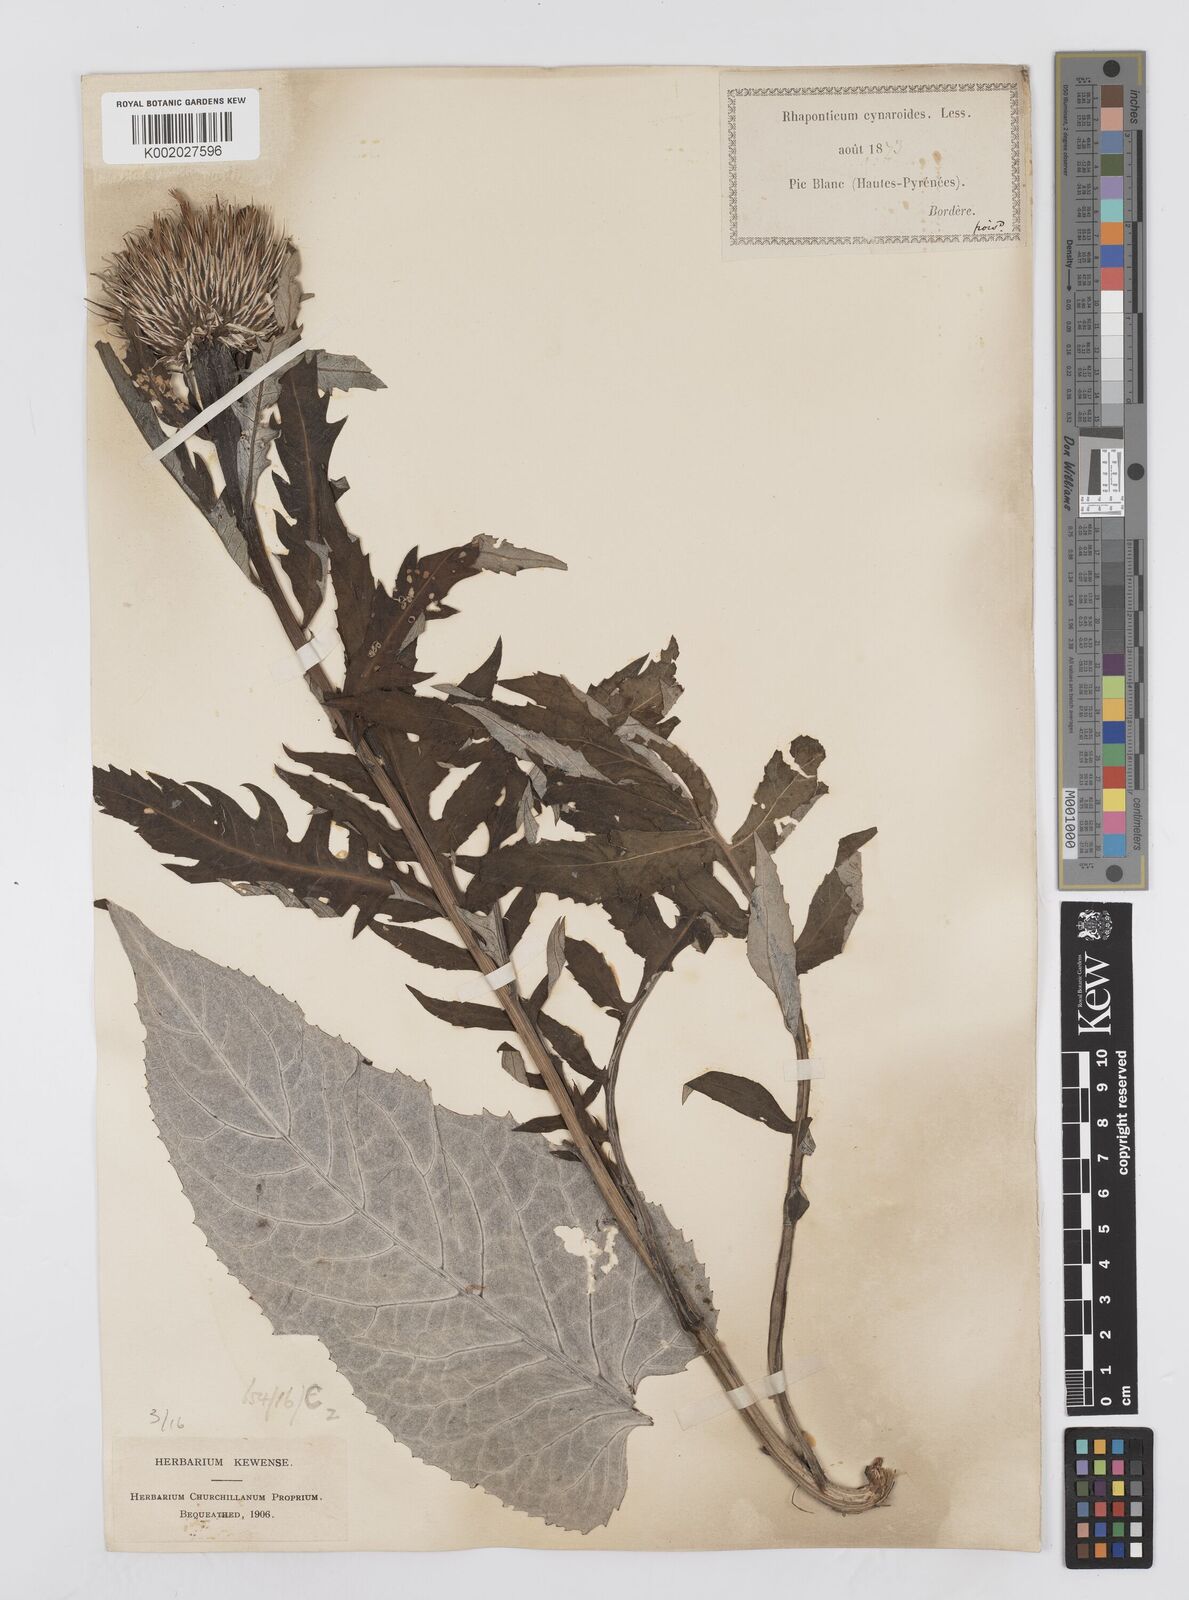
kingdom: Plantae
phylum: Tracheophyta
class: Magnoliopsida
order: Asterales
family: Asteraceae
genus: Leuzea
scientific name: Leuzea centauroides
